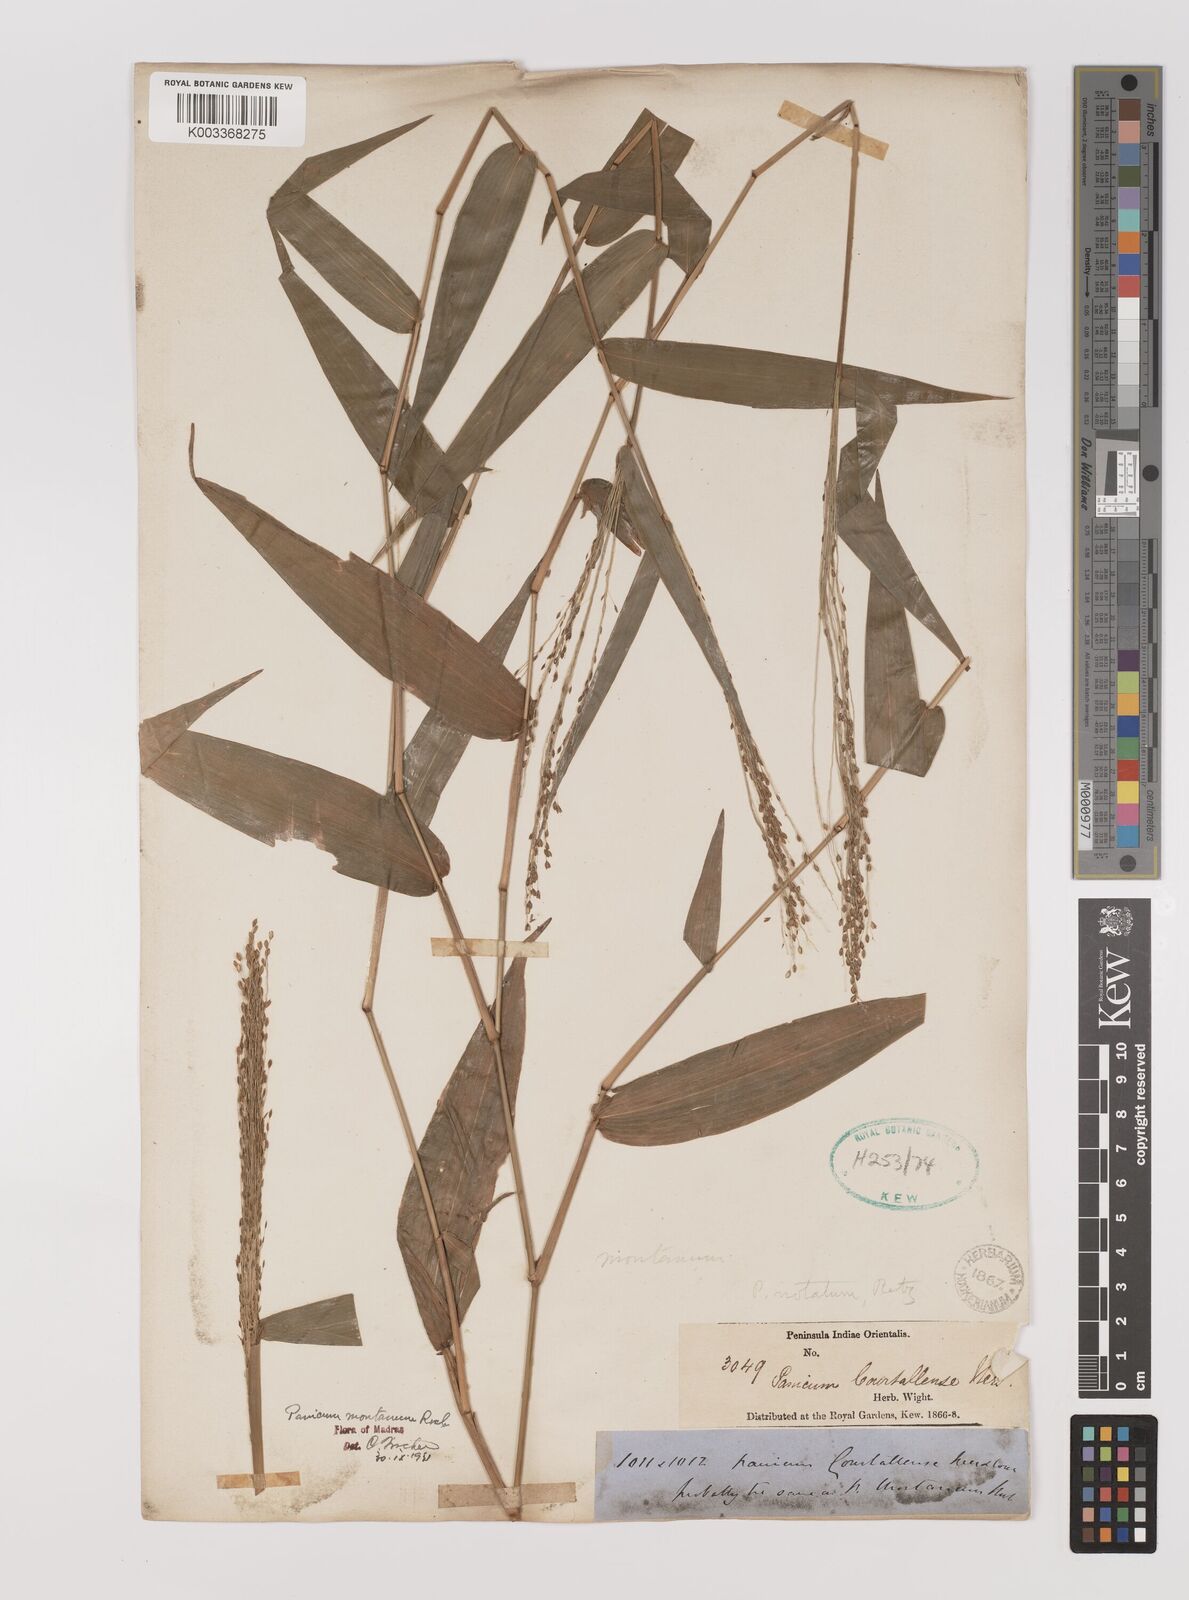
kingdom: Plantae
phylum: Tracheophyta
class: Liliopsida
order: Poales
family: Poaceae
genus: Panicum
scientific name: Panicum notatum
